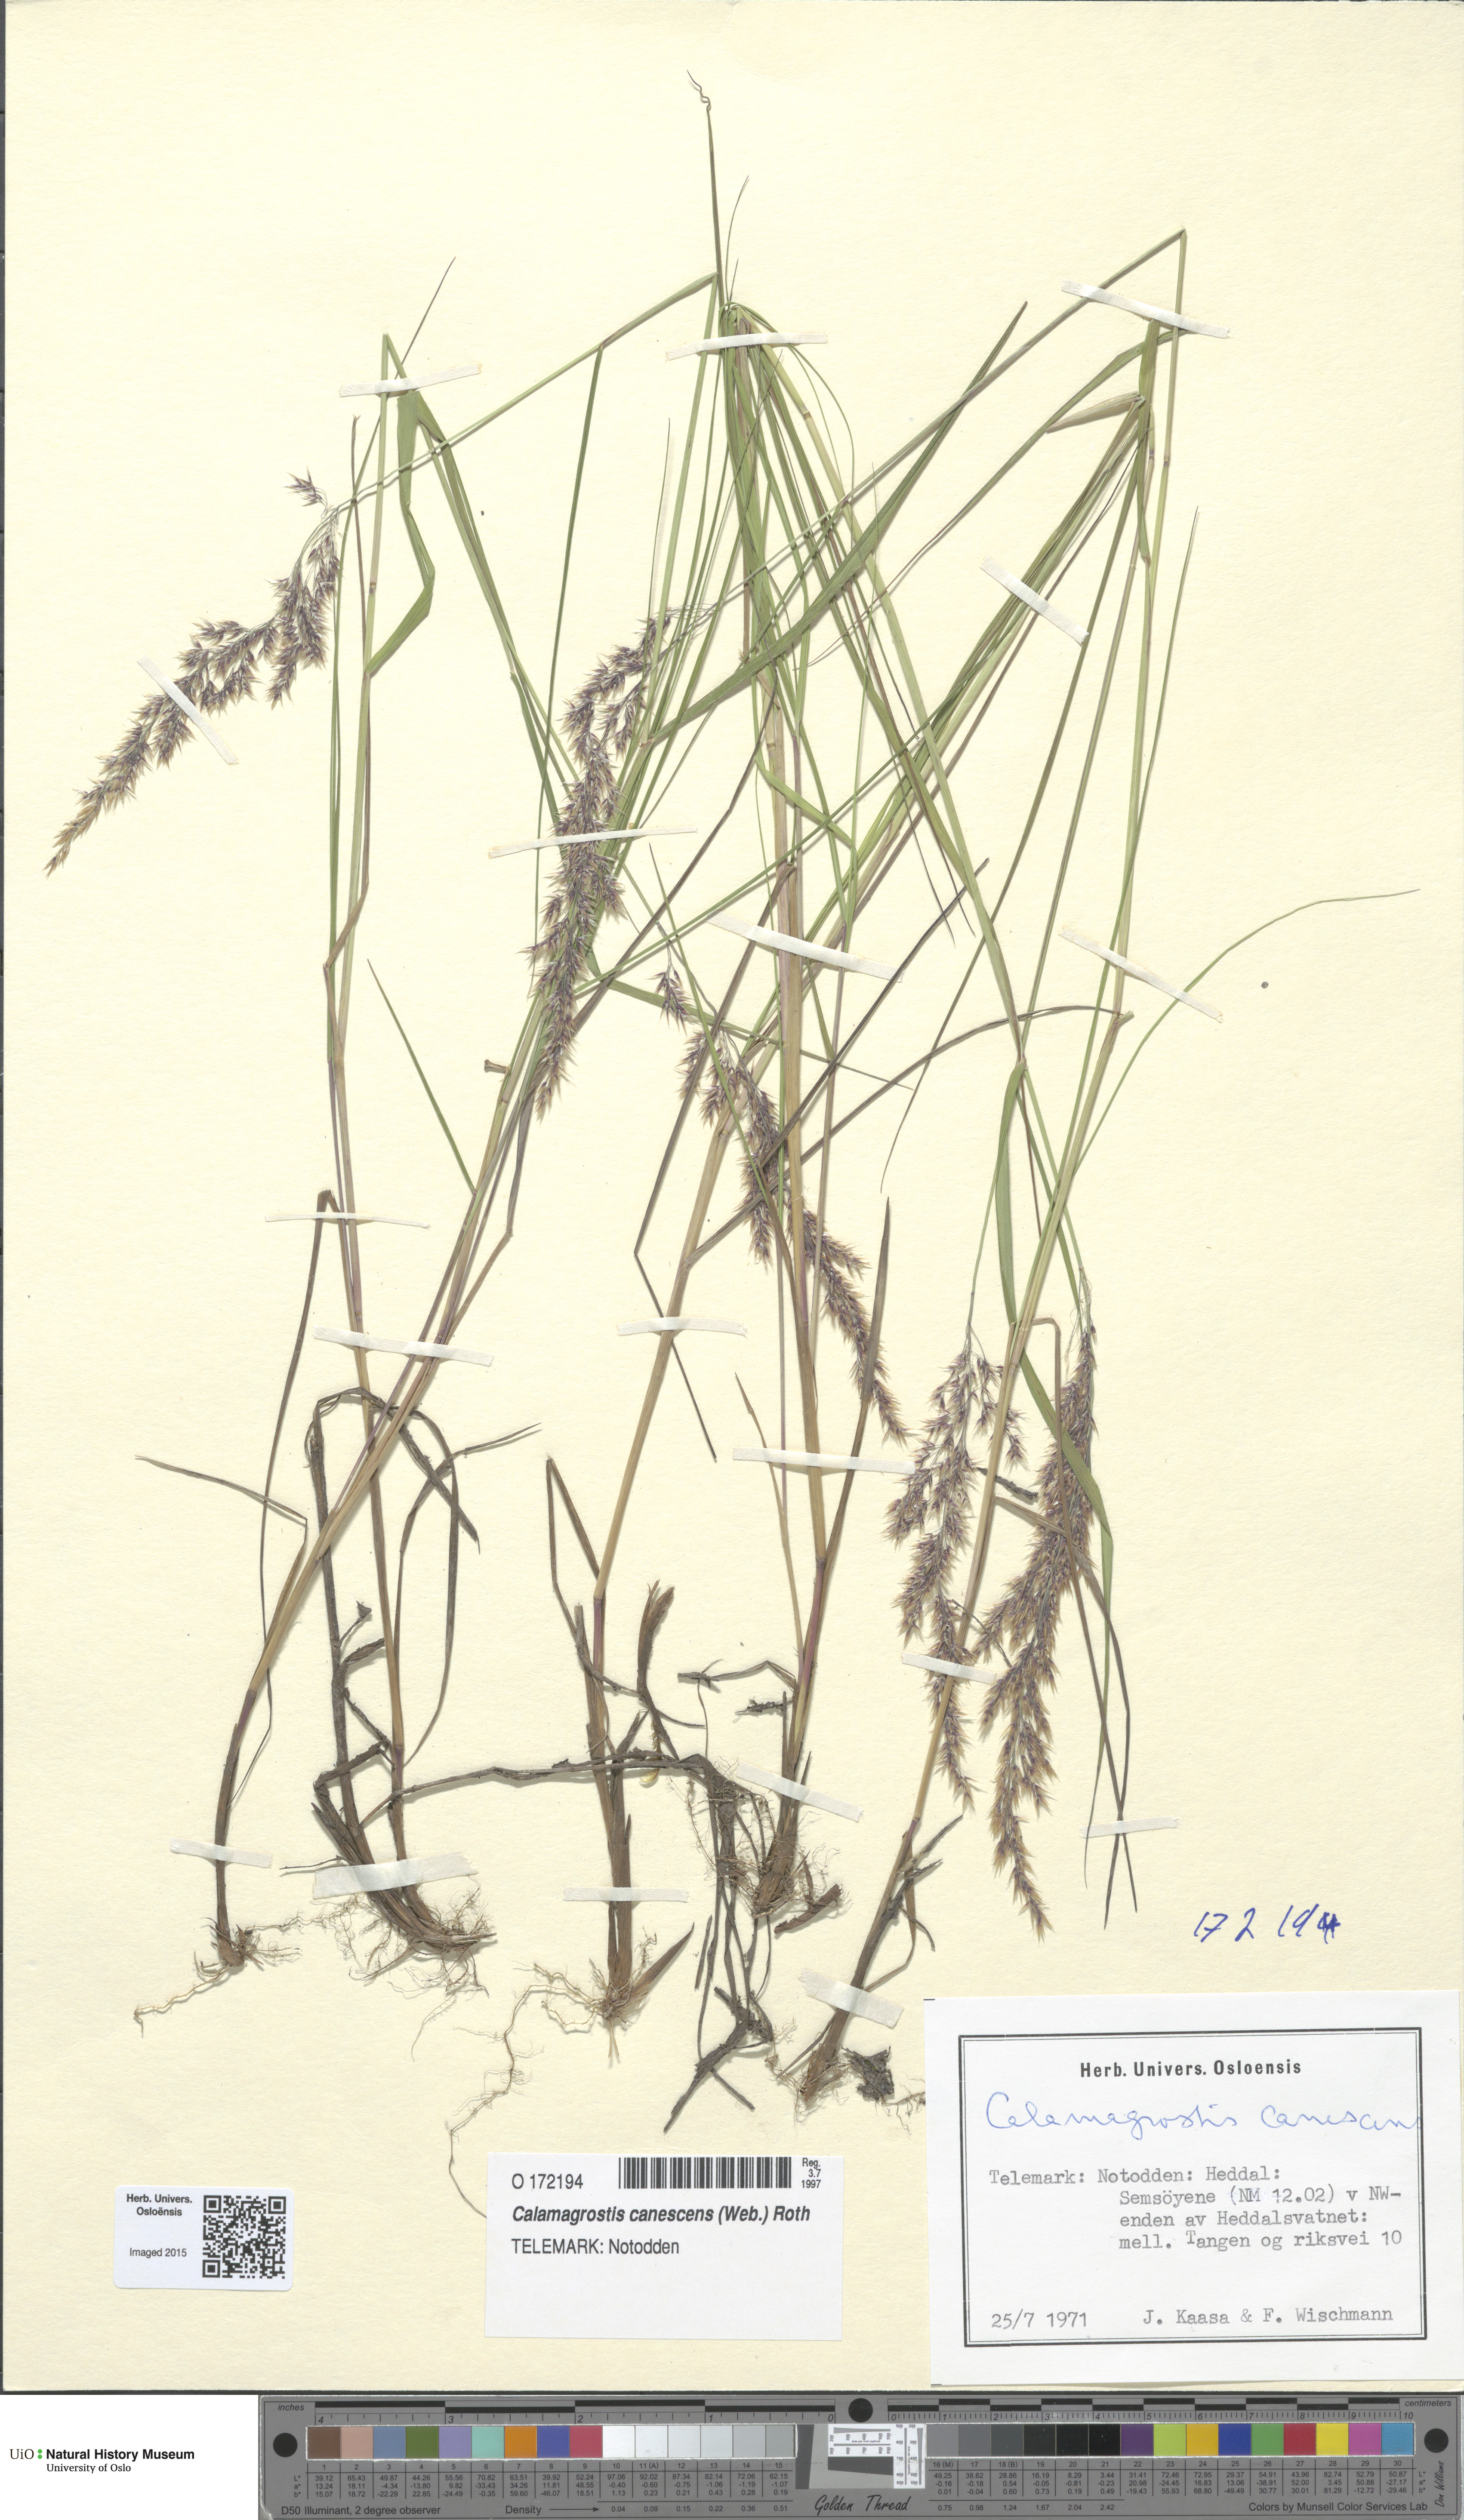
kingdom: Plantae
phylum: Tracheophyta
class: Liliopsida
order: Poales
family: Poaceae
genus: Calamagrostis
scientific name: Calamagrostis canescens
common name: Purple small-reed
